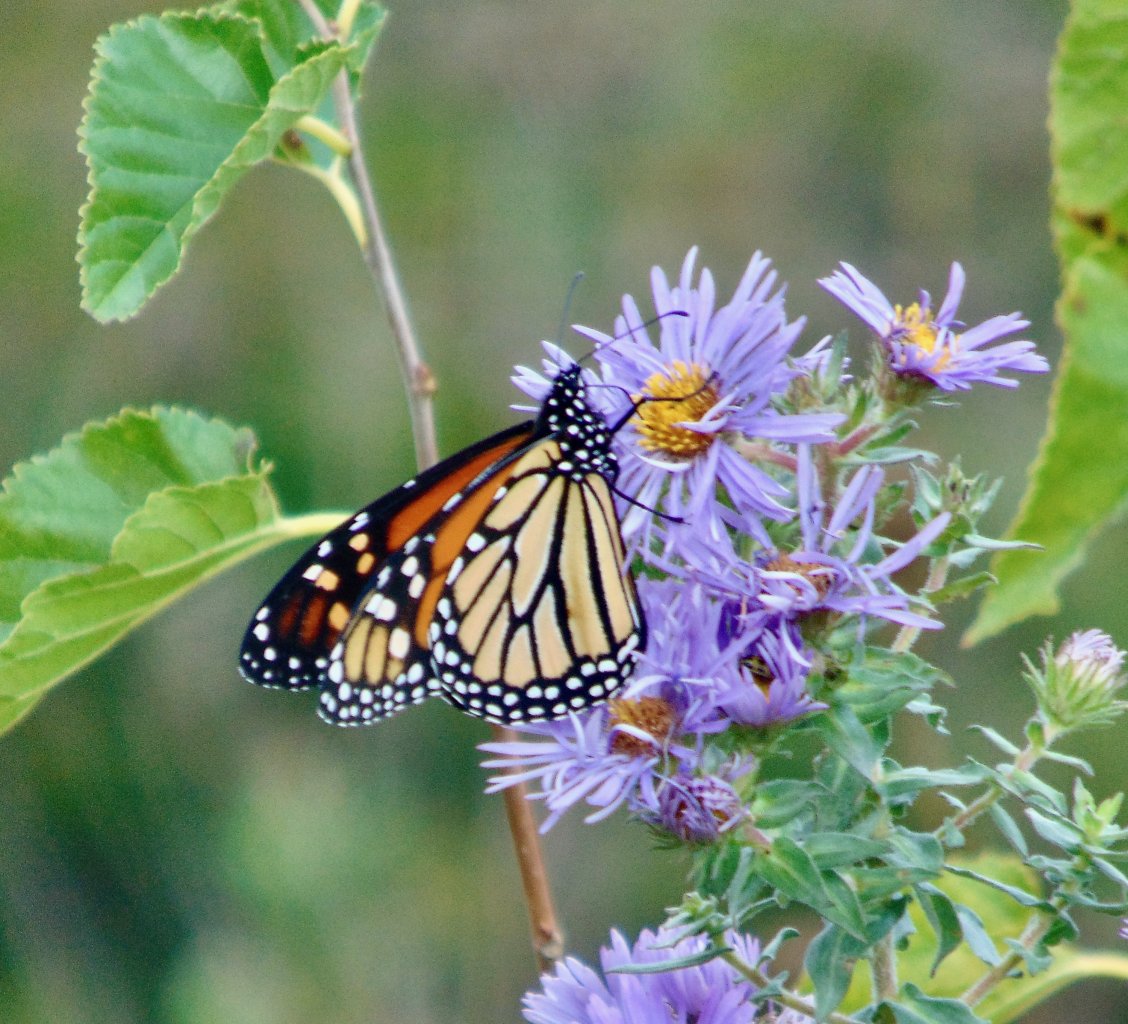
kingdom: Animalia
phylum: Arthropoda
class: Insecta
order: Lepidoptera
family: Nymphalidae
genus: Danaus
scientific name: Danaus plexippus
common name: Monarch
